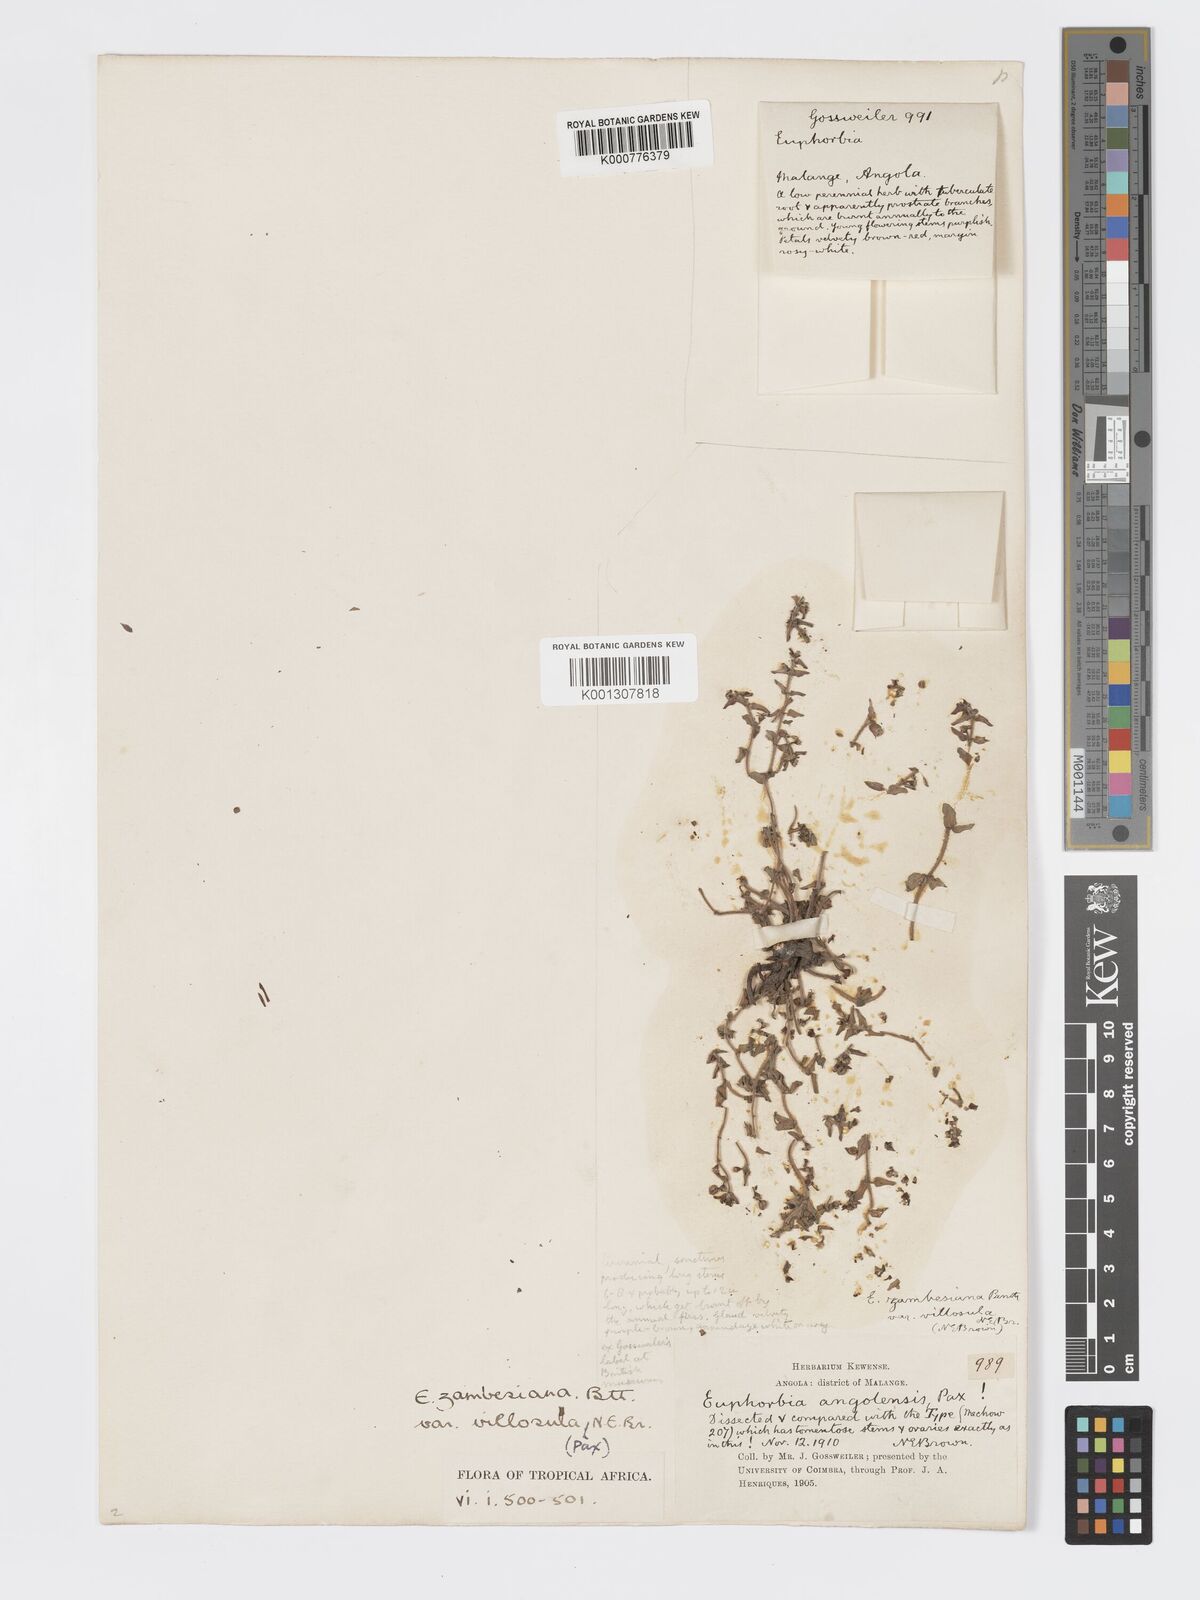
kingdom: Plantae
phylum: Tracheophyta
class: Magnoliopsida
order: Malpighiales
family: Euphorbiaceae
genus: Euphorbia
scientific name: Euphorbia zambesiana
